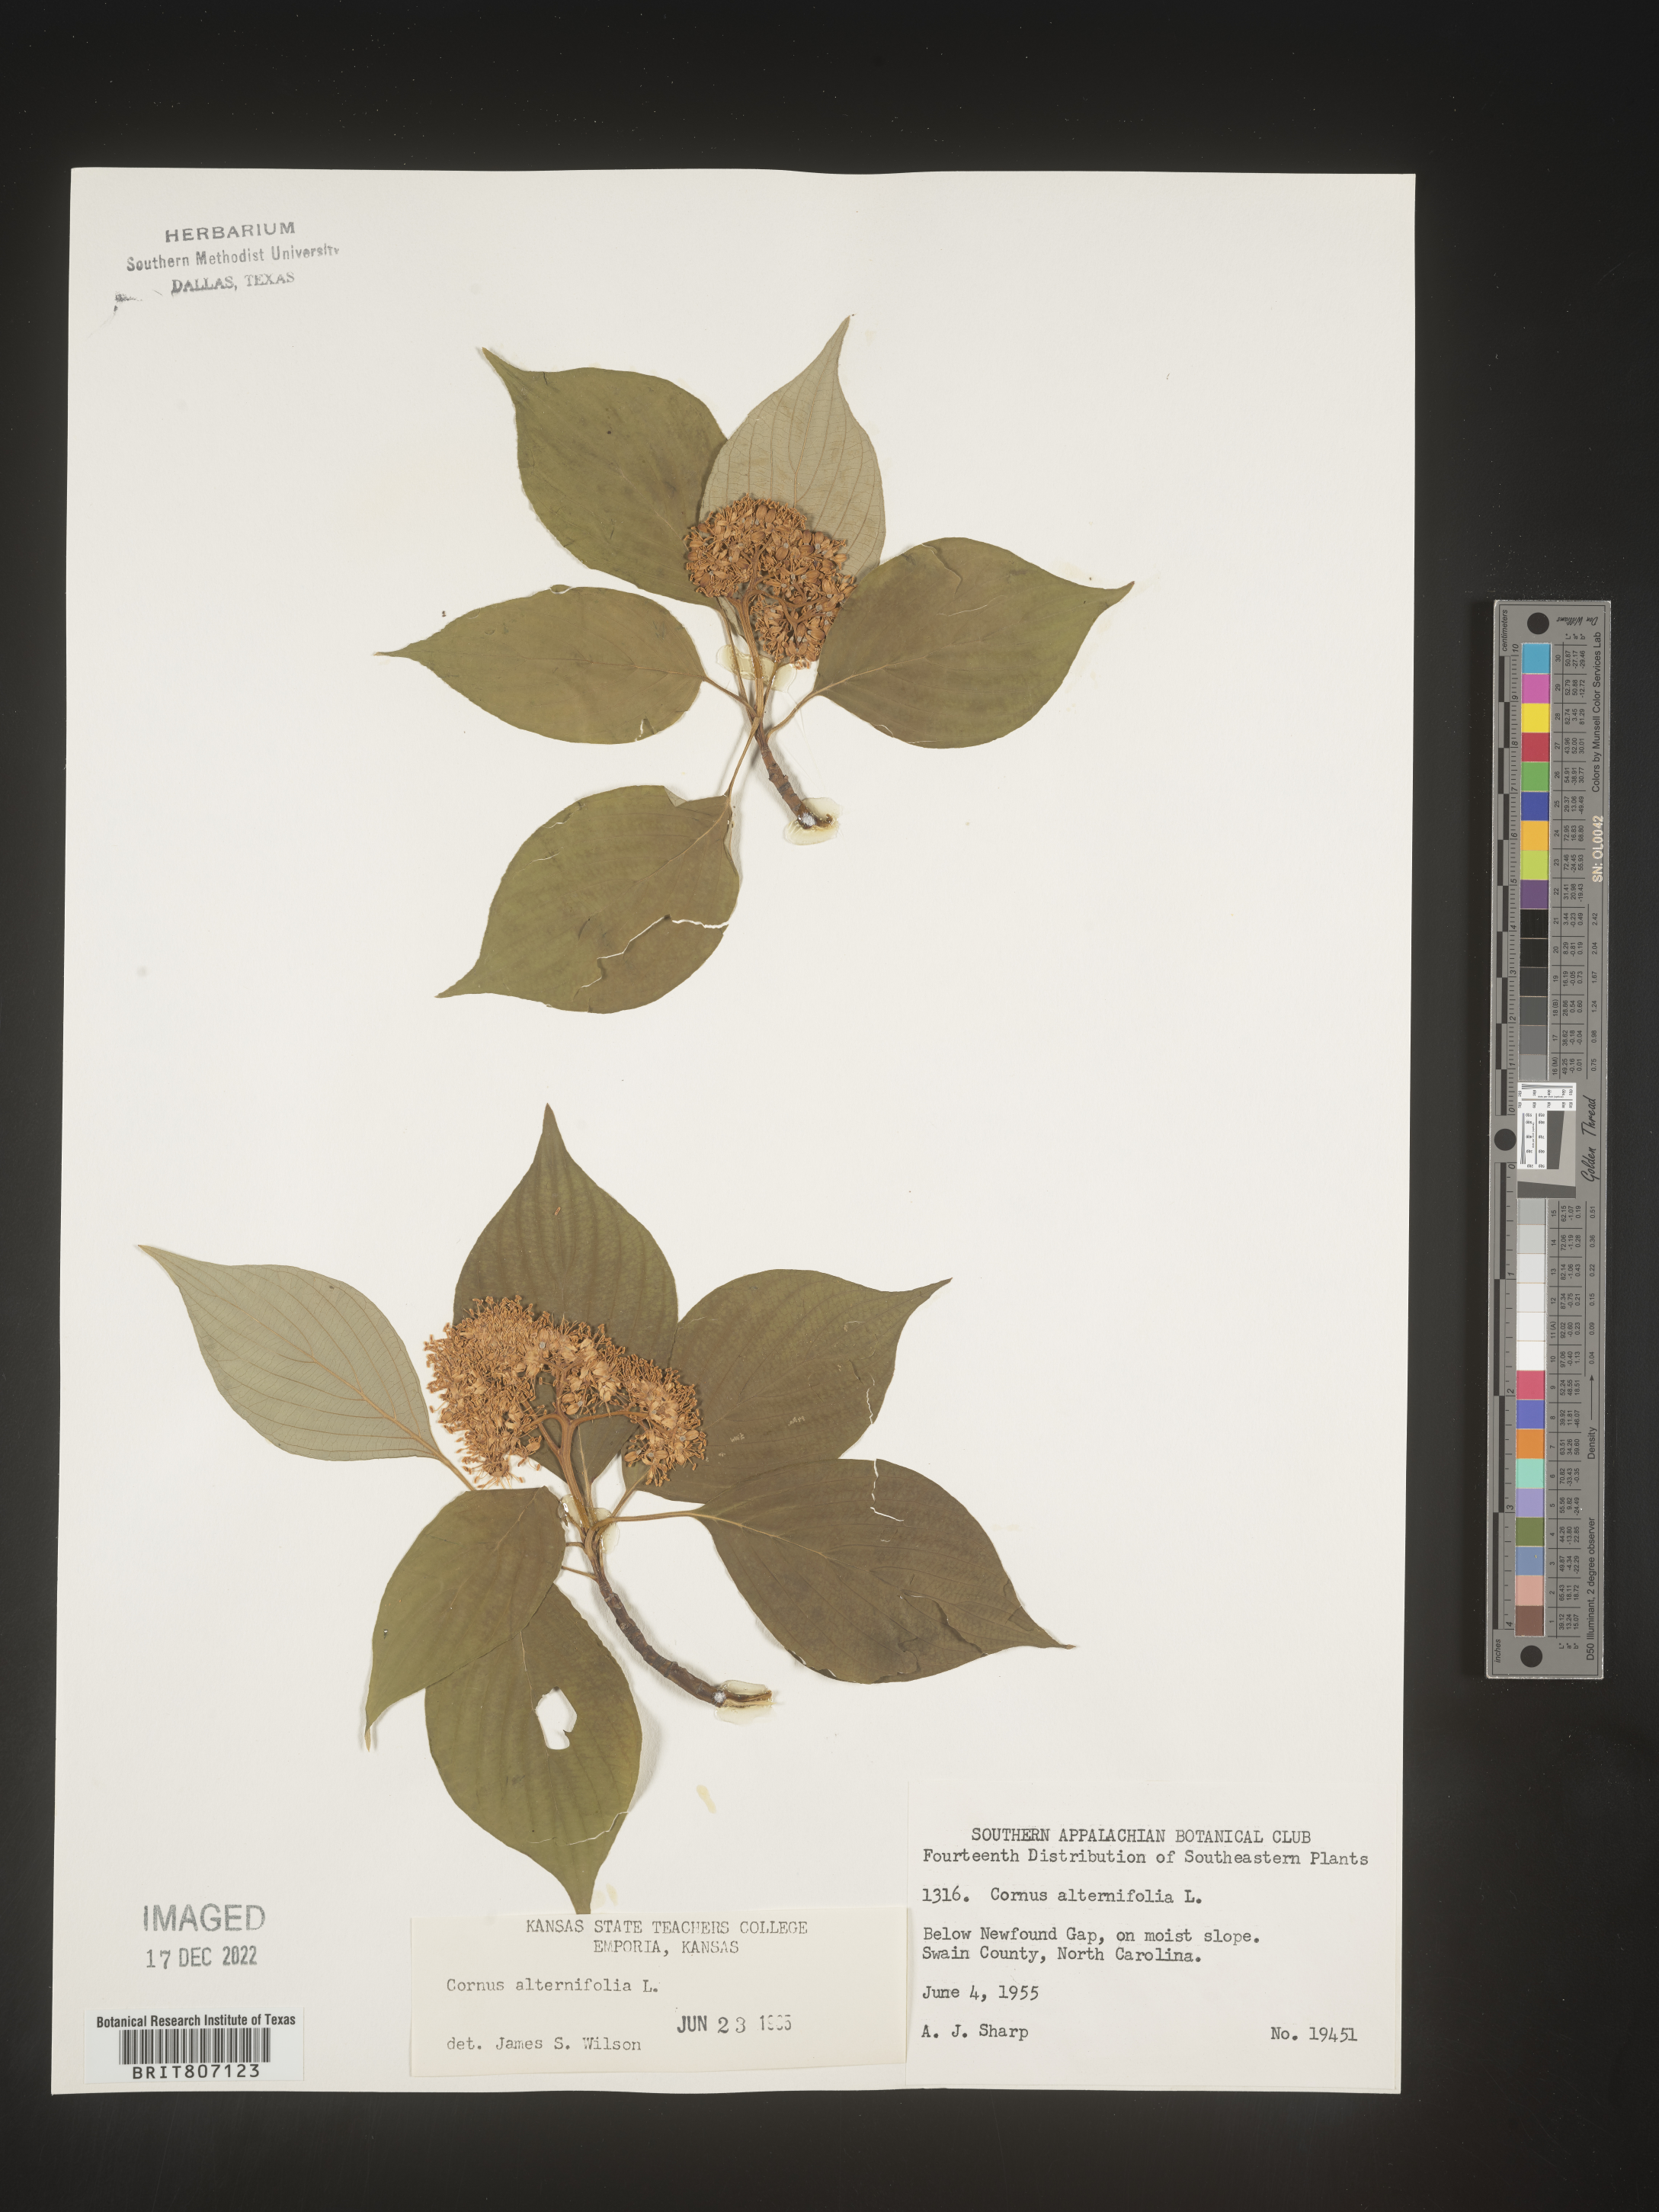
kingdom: Plantae
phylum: Tracheophyta
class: Magnoliopsida
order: Cornales
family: Cornaceae
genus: Cornus
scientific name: Cornus alternifolia
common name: Pagoda dogwood
